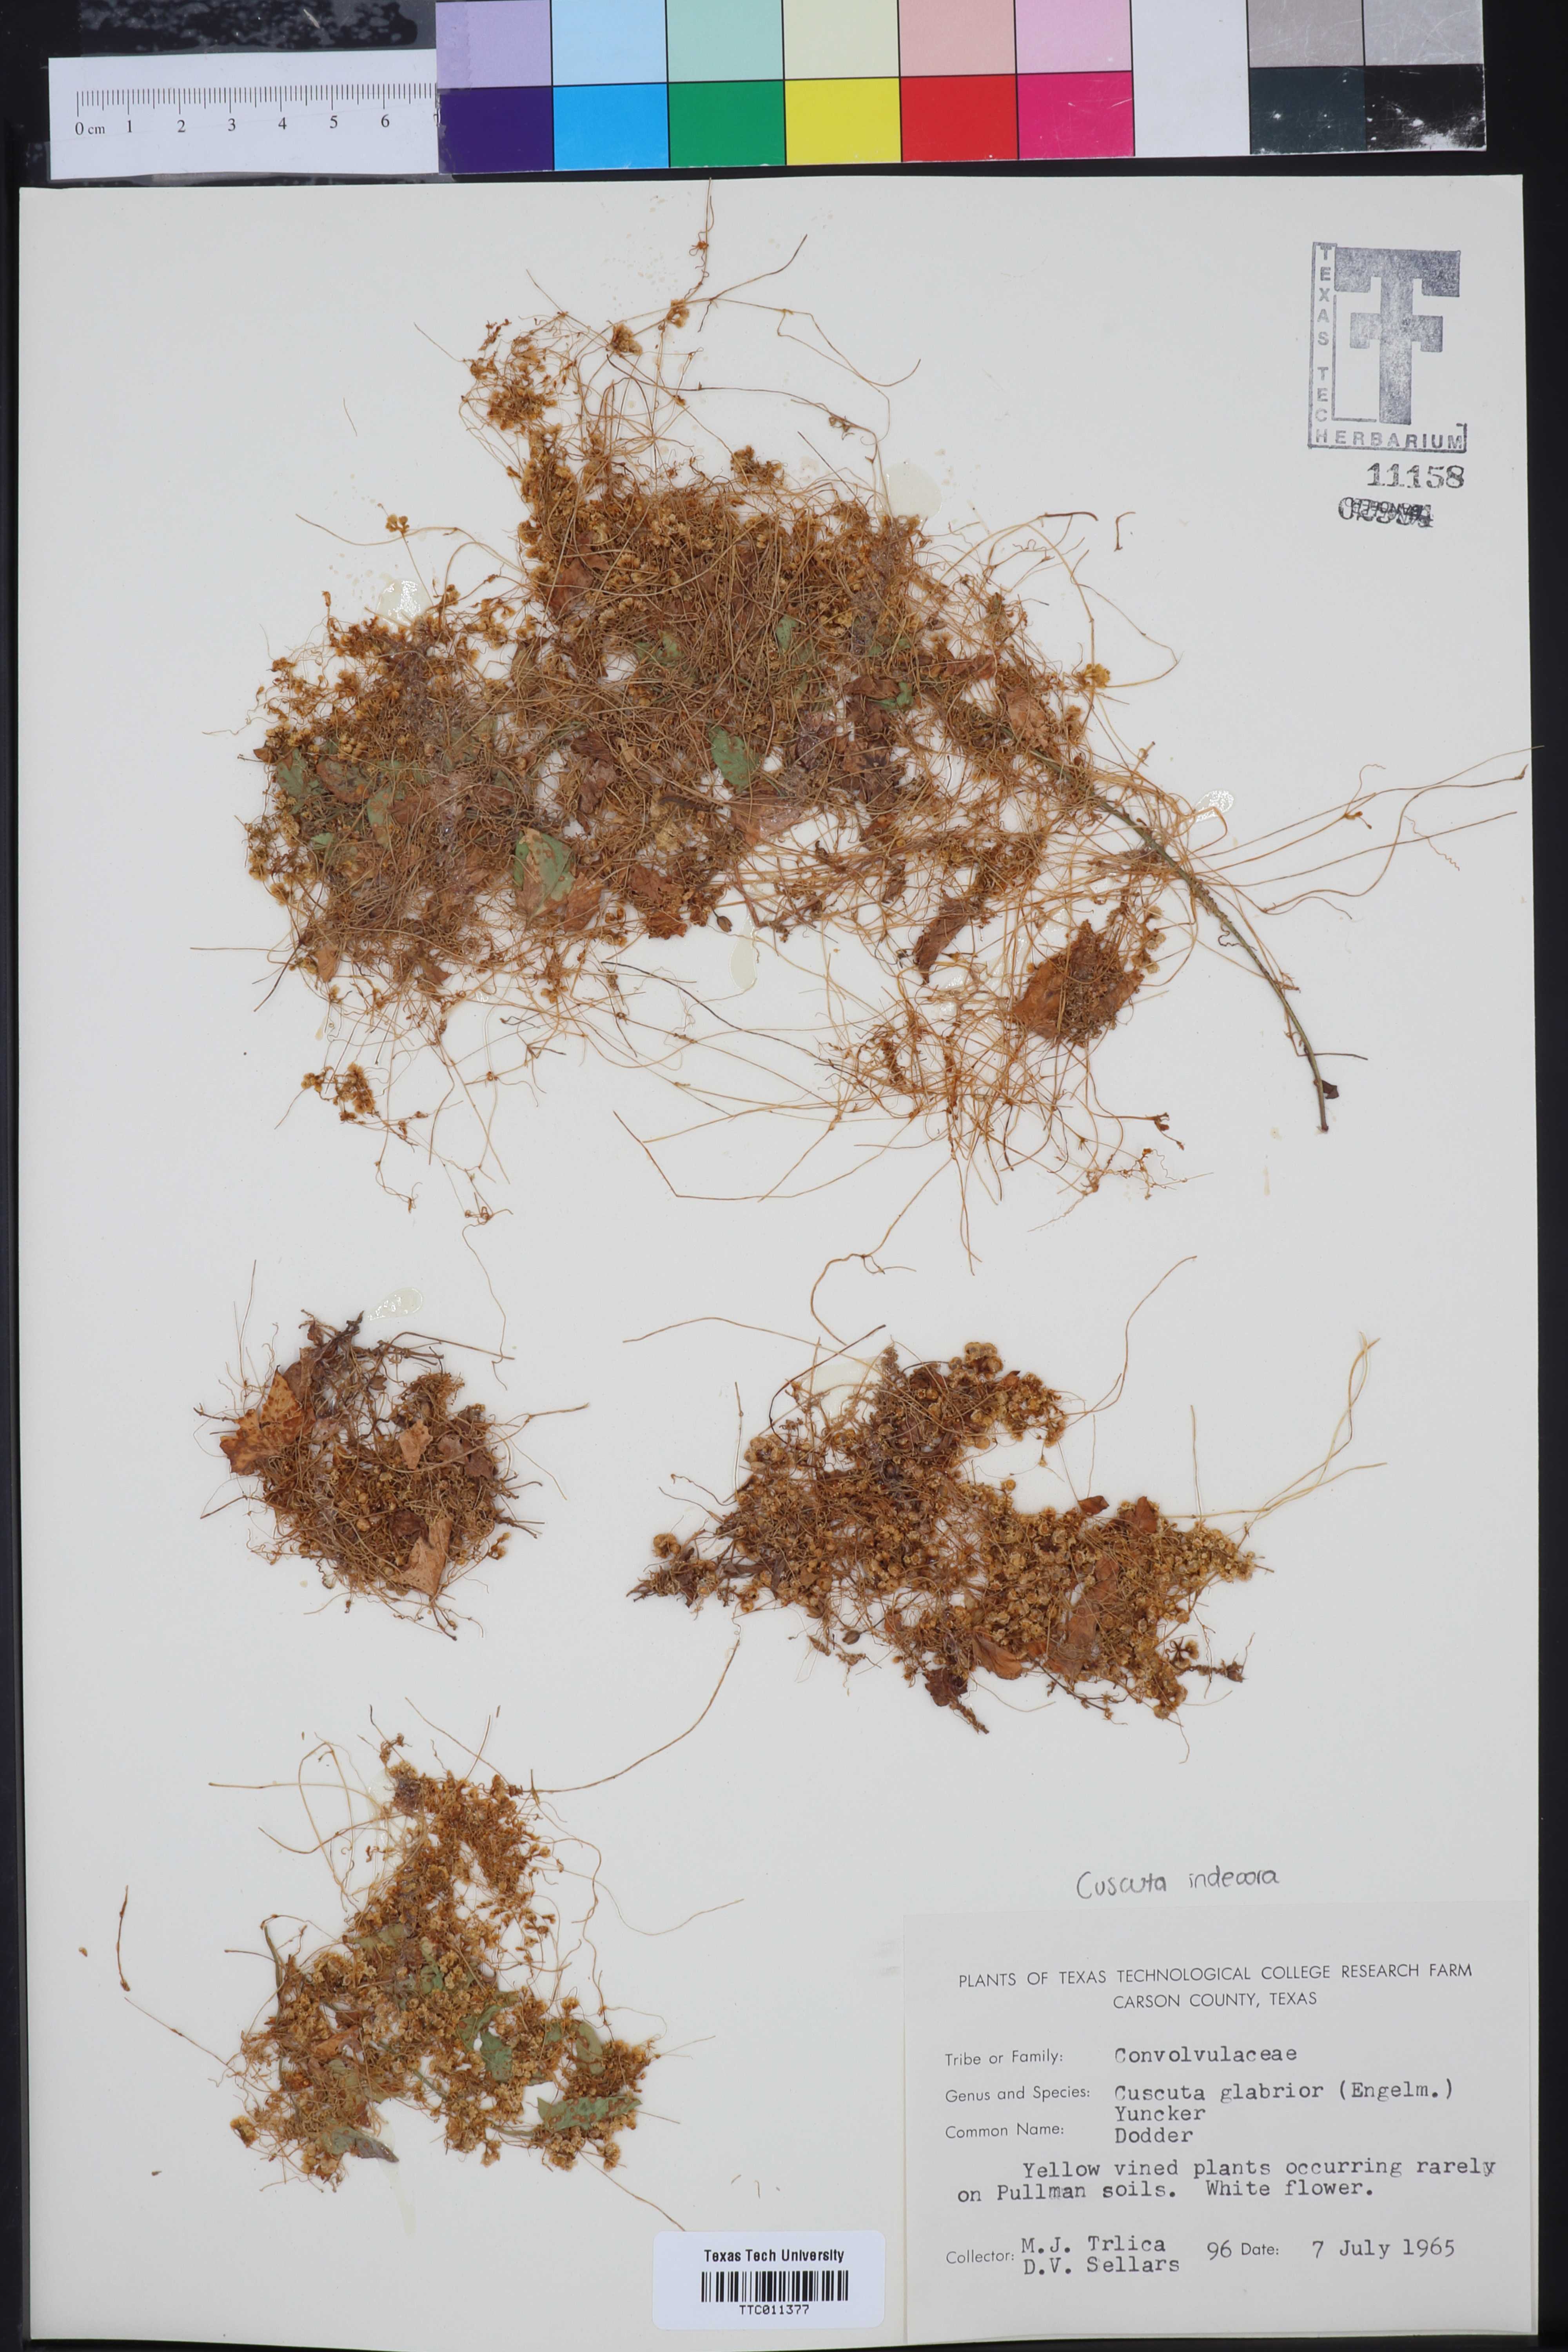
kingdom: Plantae
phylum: Tracheophyta
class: Magnoliopsida
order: Solanales
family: Convolvulaceae
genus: Cuscuta
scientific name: Cuscuta glabrior
